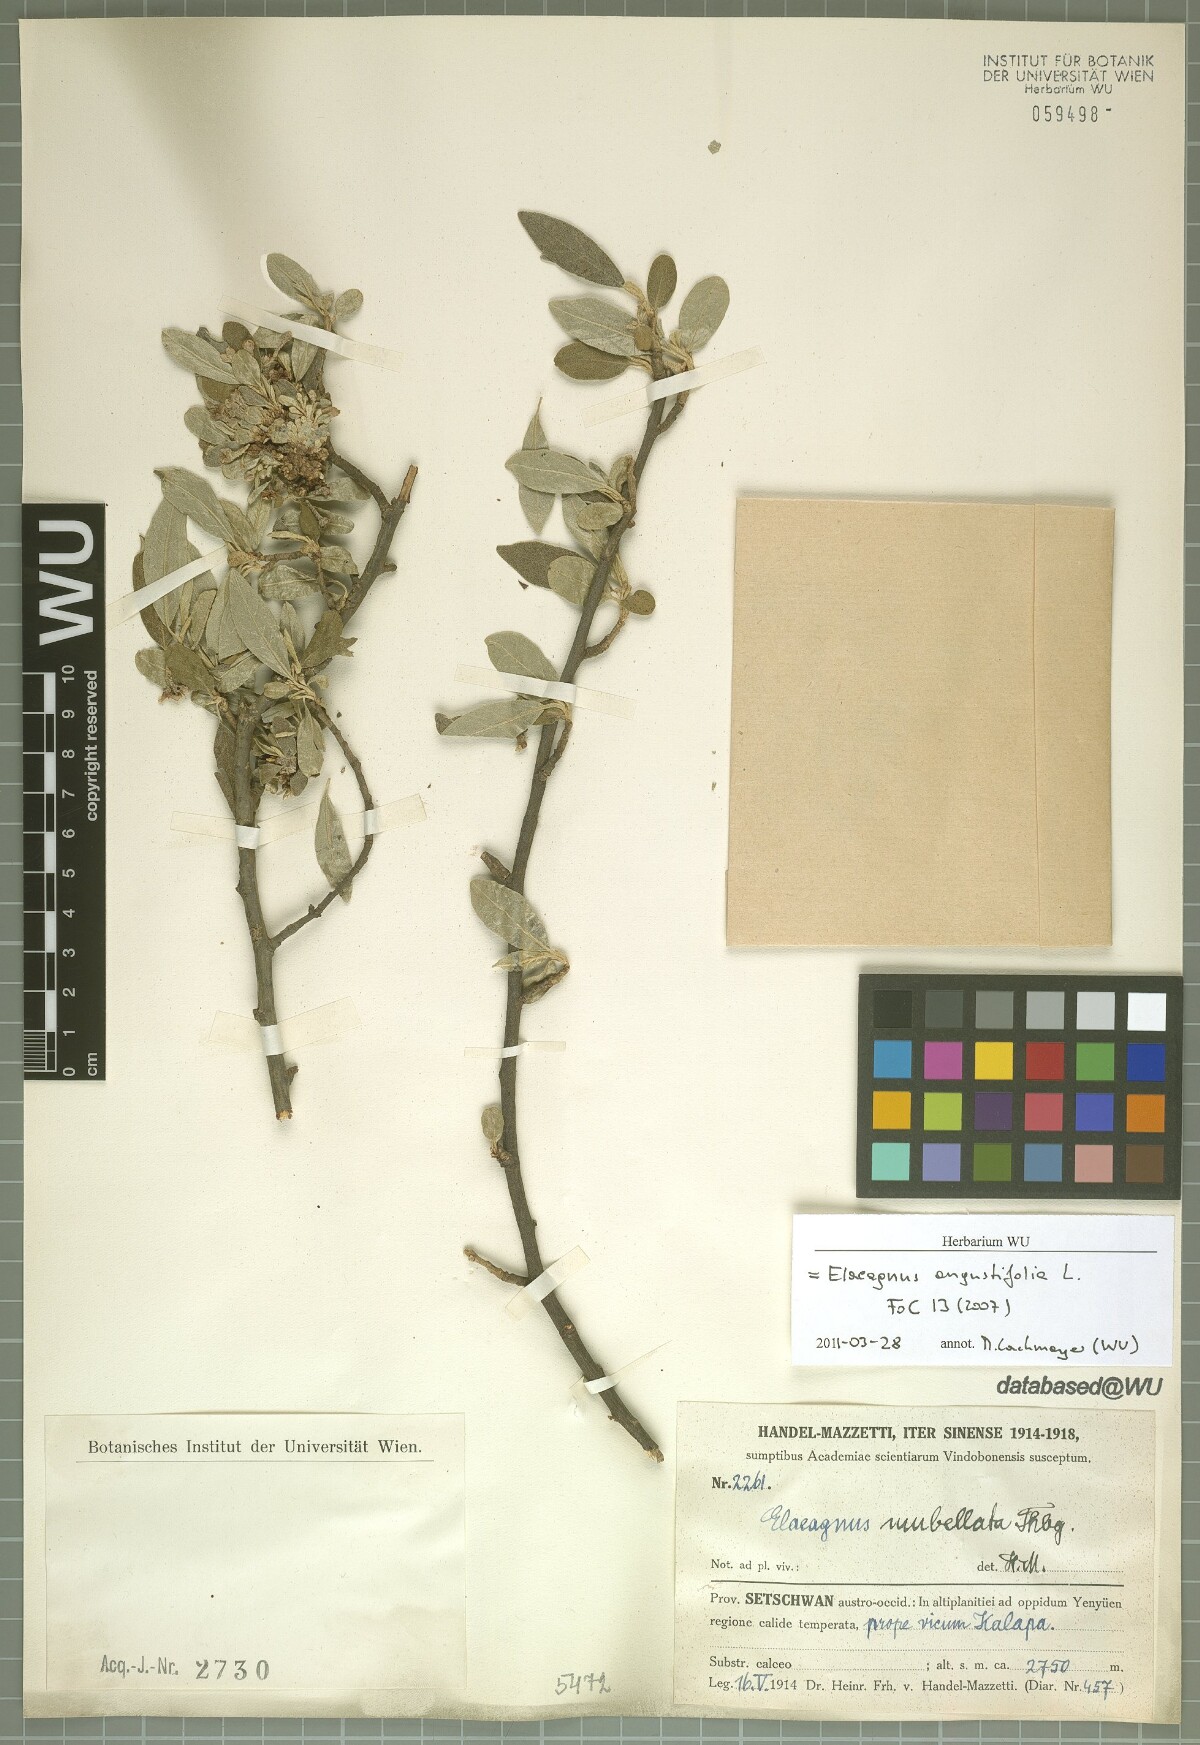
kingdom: Plantae
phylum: Tracheophyta
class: Magnoliopsida
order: Rosales
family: Elaeagnaceae
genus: Elaeagnus
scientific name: Elaeagnus angustifolia
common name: Russian olive
